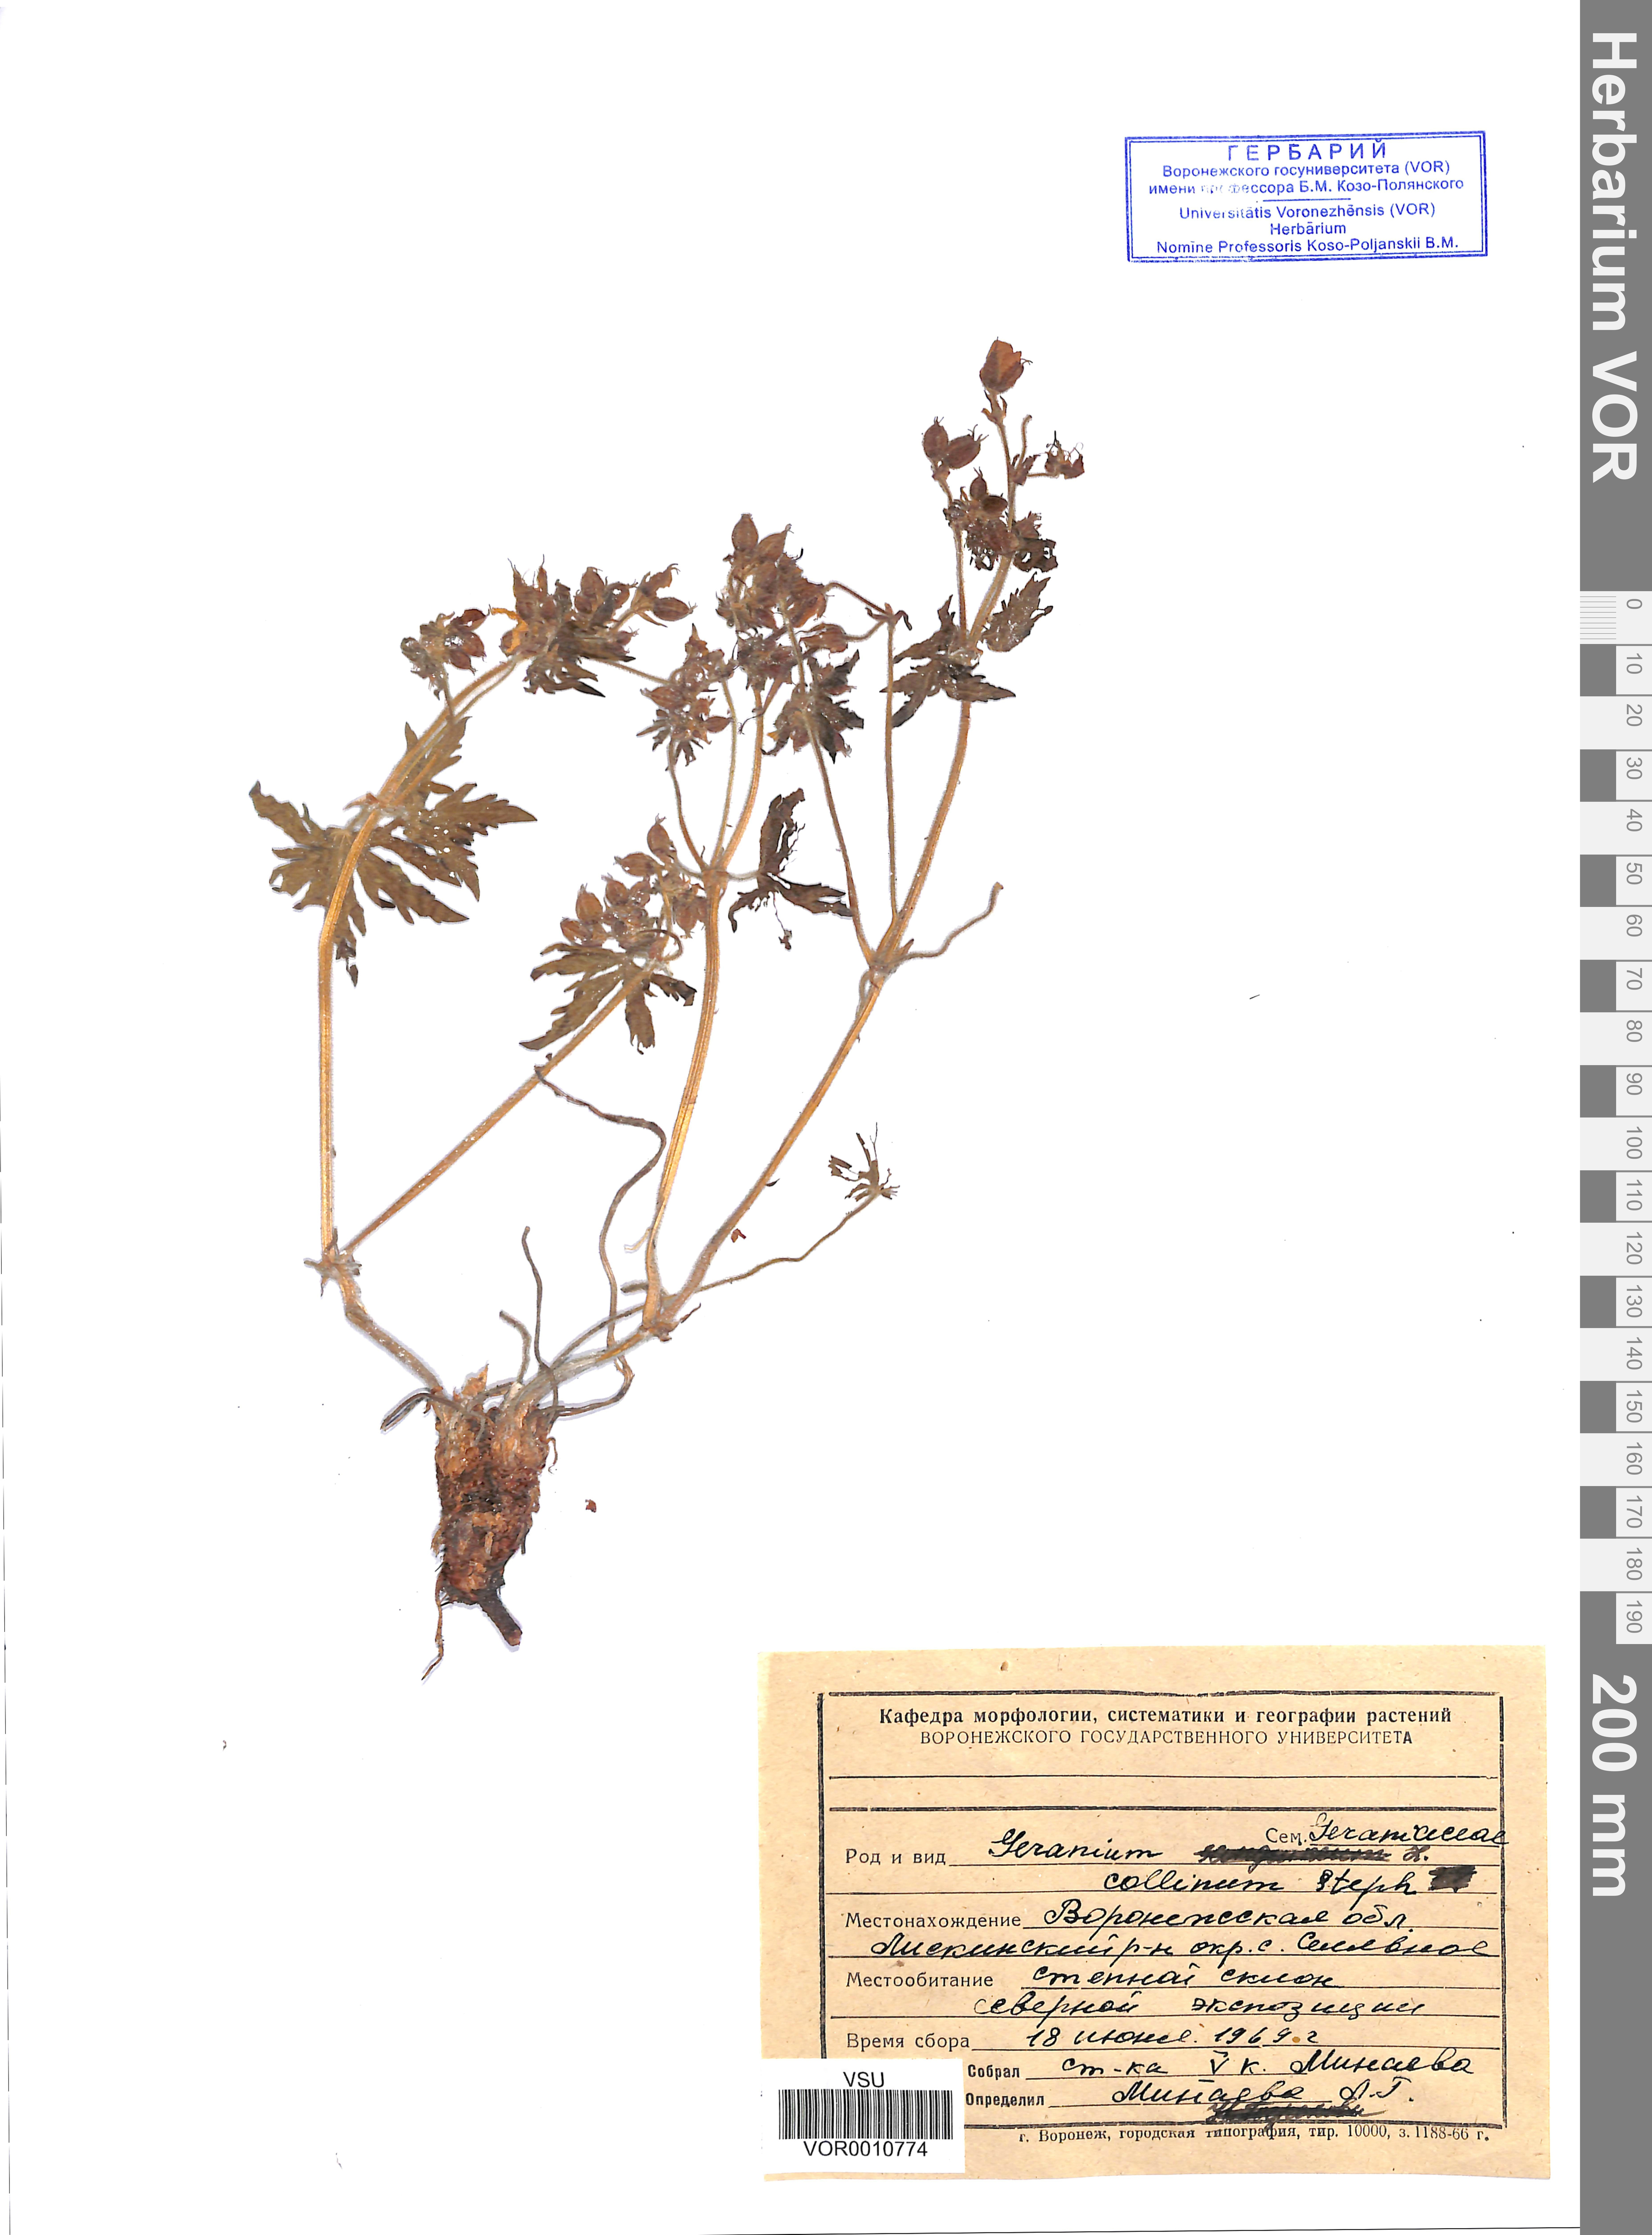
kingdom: Plantae
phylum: Tracheophyta
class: Magnoliopsida
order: Geraniales
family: Geraniaceae
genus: Geranium
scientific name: Geranium collinum
